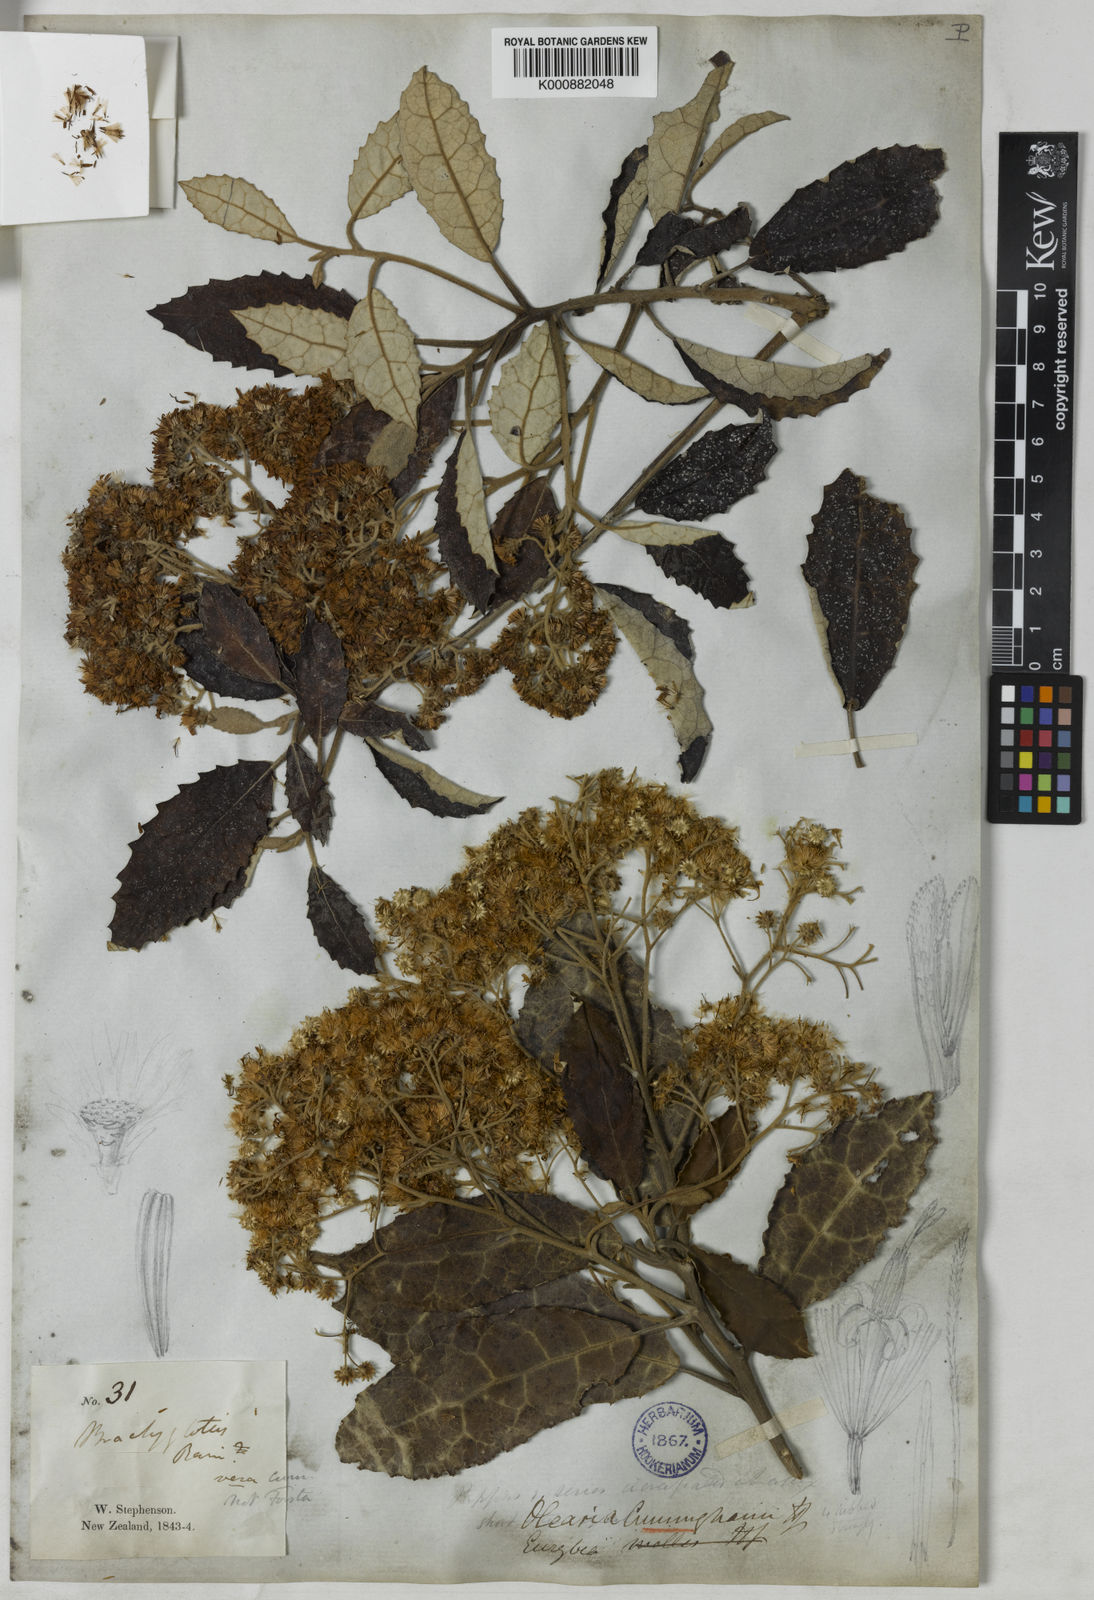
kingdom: Plantae
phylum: Tracheophyta
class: Magnoliopsida
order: Asterales
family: Asteraceae
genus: Olearia
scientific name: Olearia ilicifolia
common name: Maori-holly
